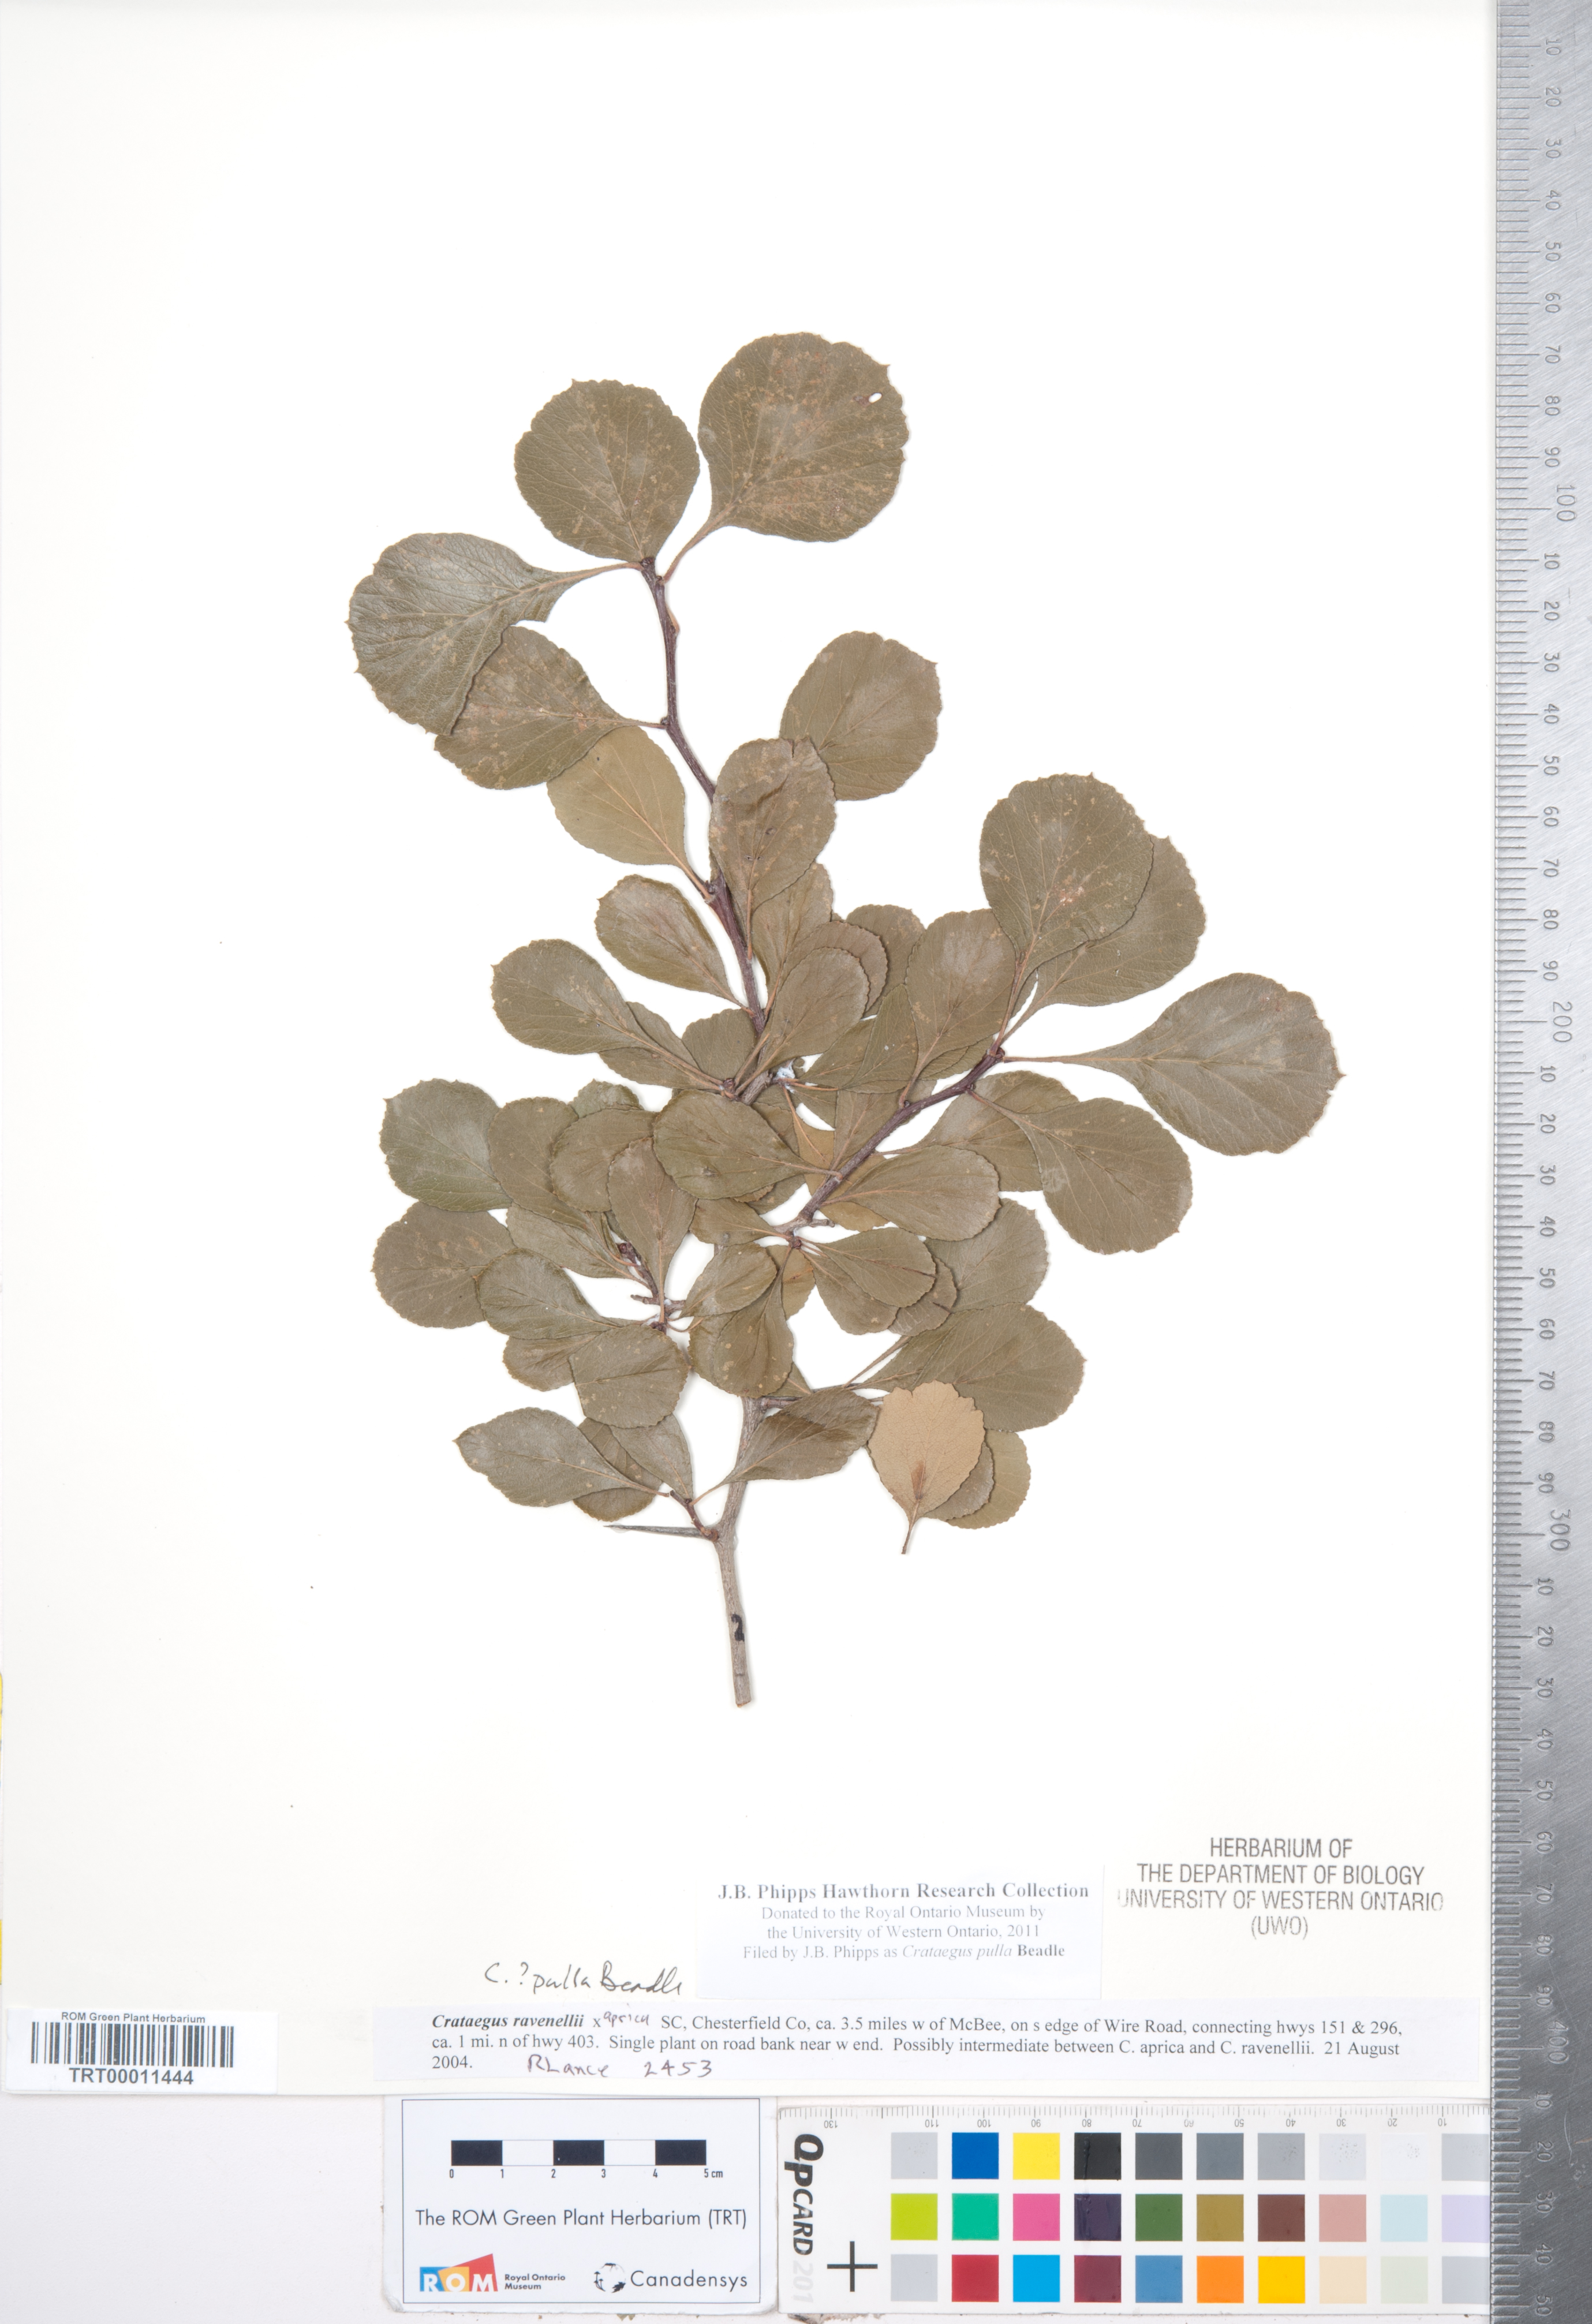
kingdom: Plantae
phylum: Tracheophyta
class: Magnoliopsida
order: Rosales
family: Rosaceae
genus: Crataegus
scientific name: Crataegus senta
